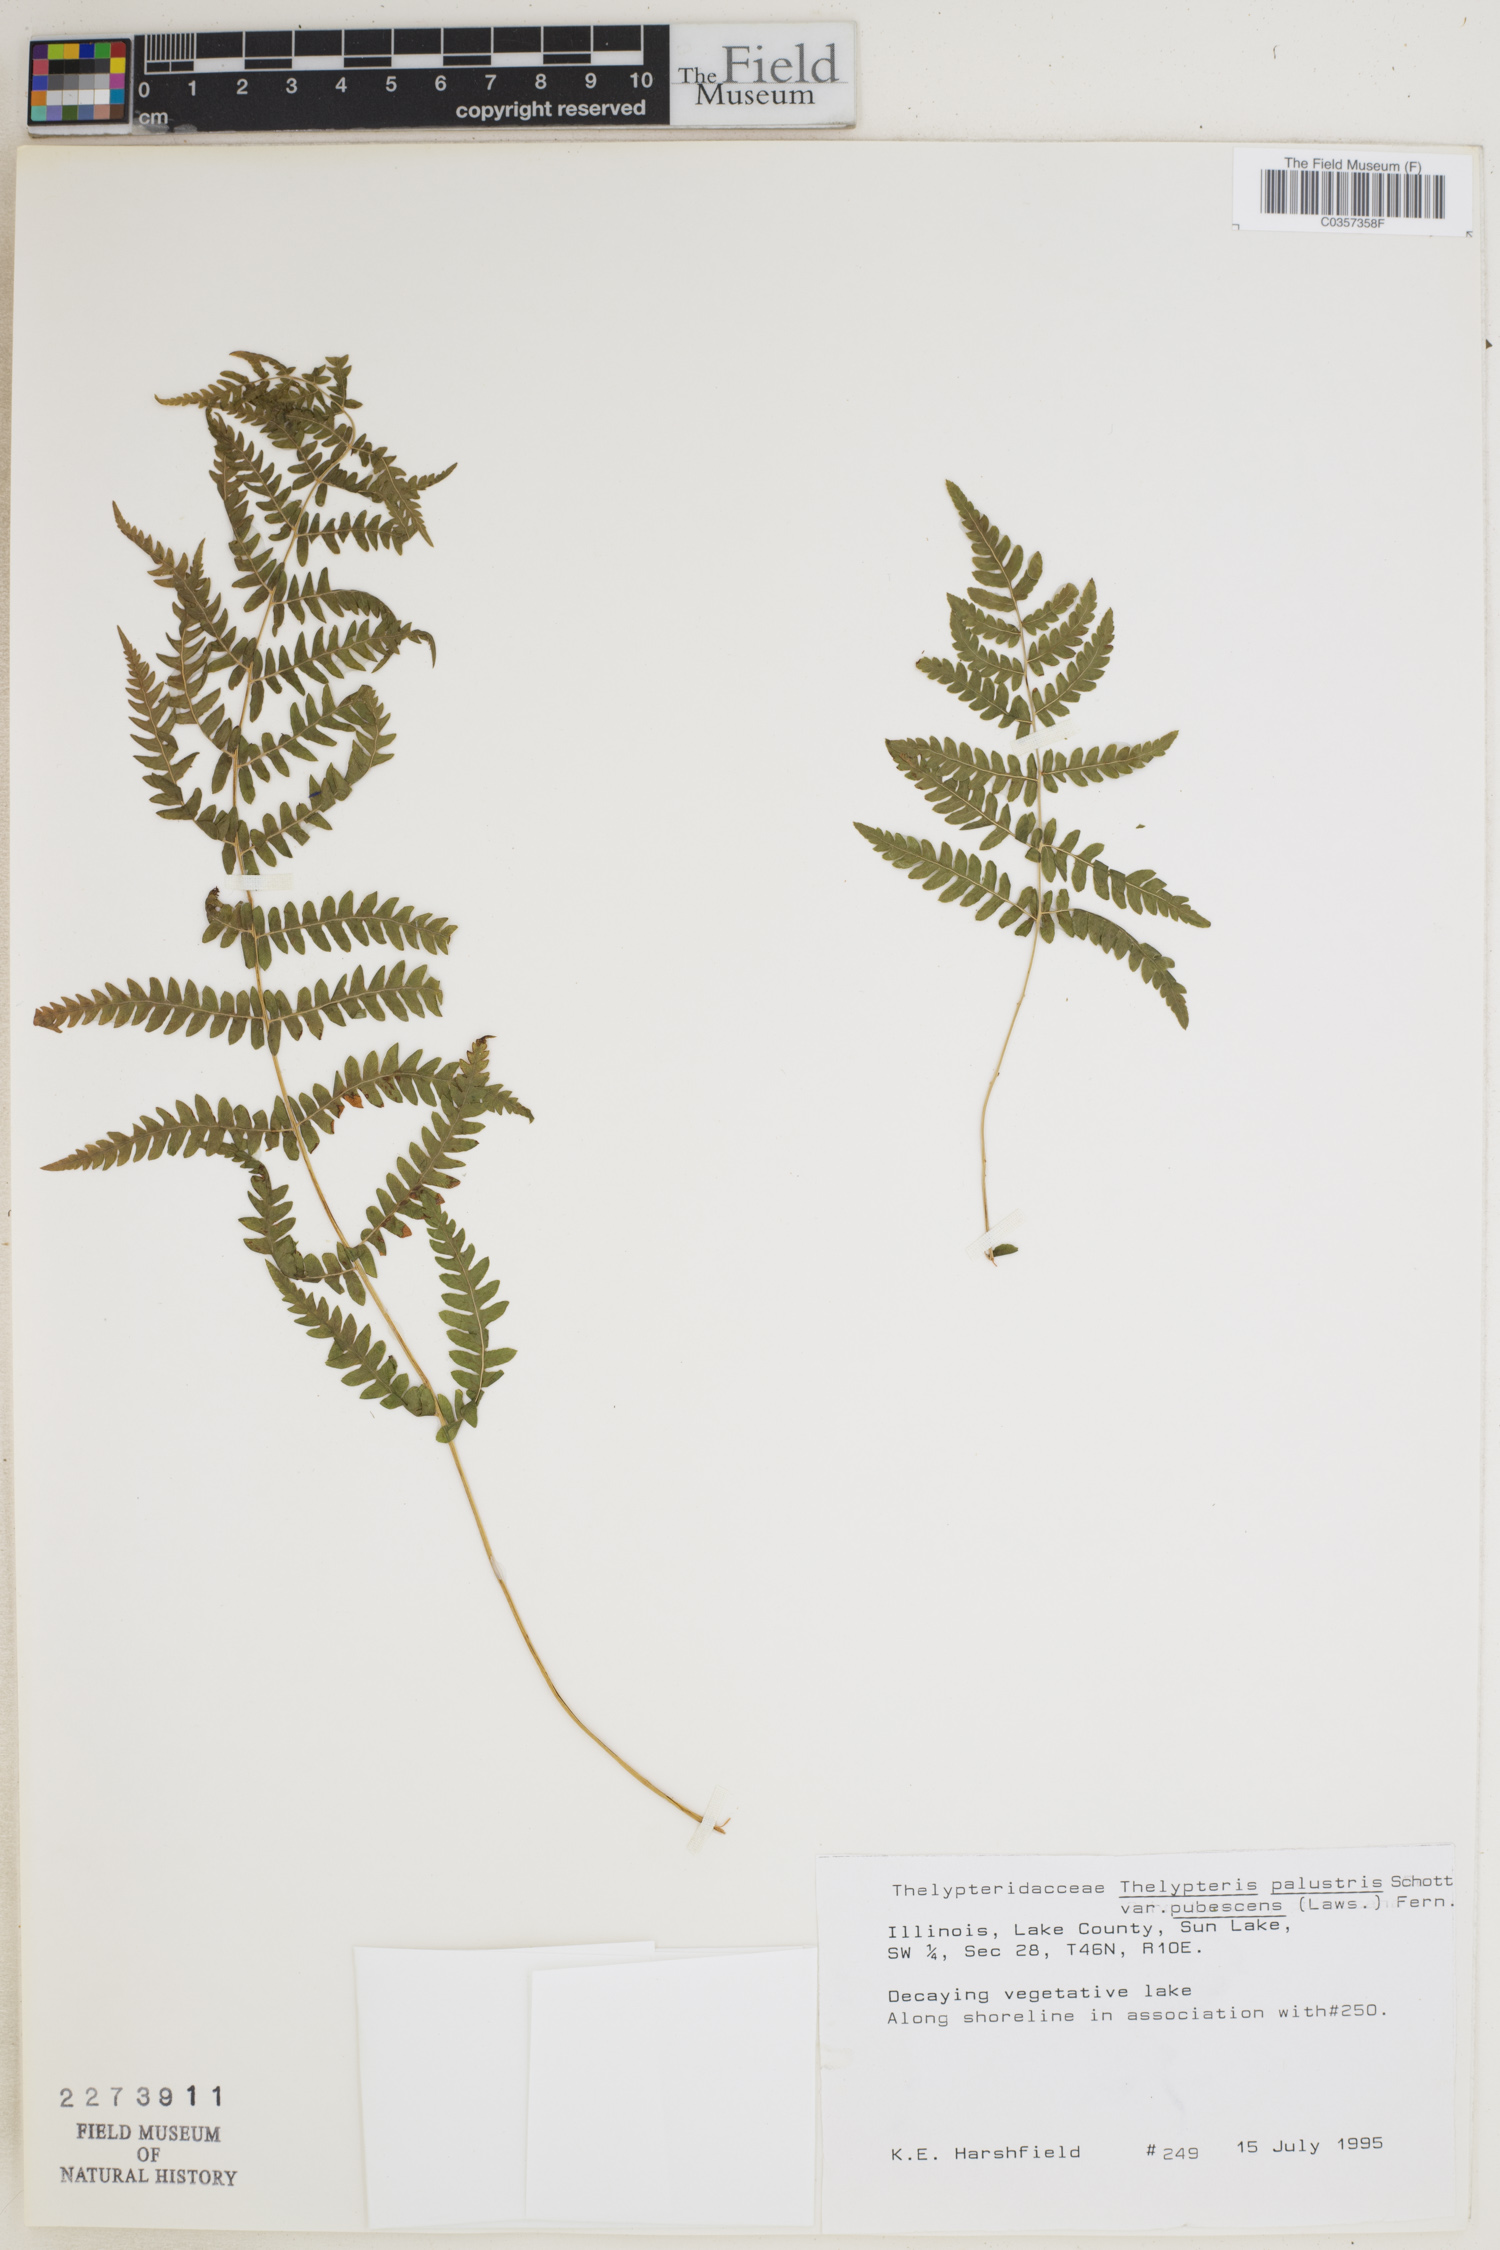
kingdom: Plantae
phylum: Tracheophyta
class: Polypodiopsida
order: Polypodiales
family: Thelypteridaceae
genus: Thelypteris
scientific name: Thelypteris palustris
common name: Marsh fern
